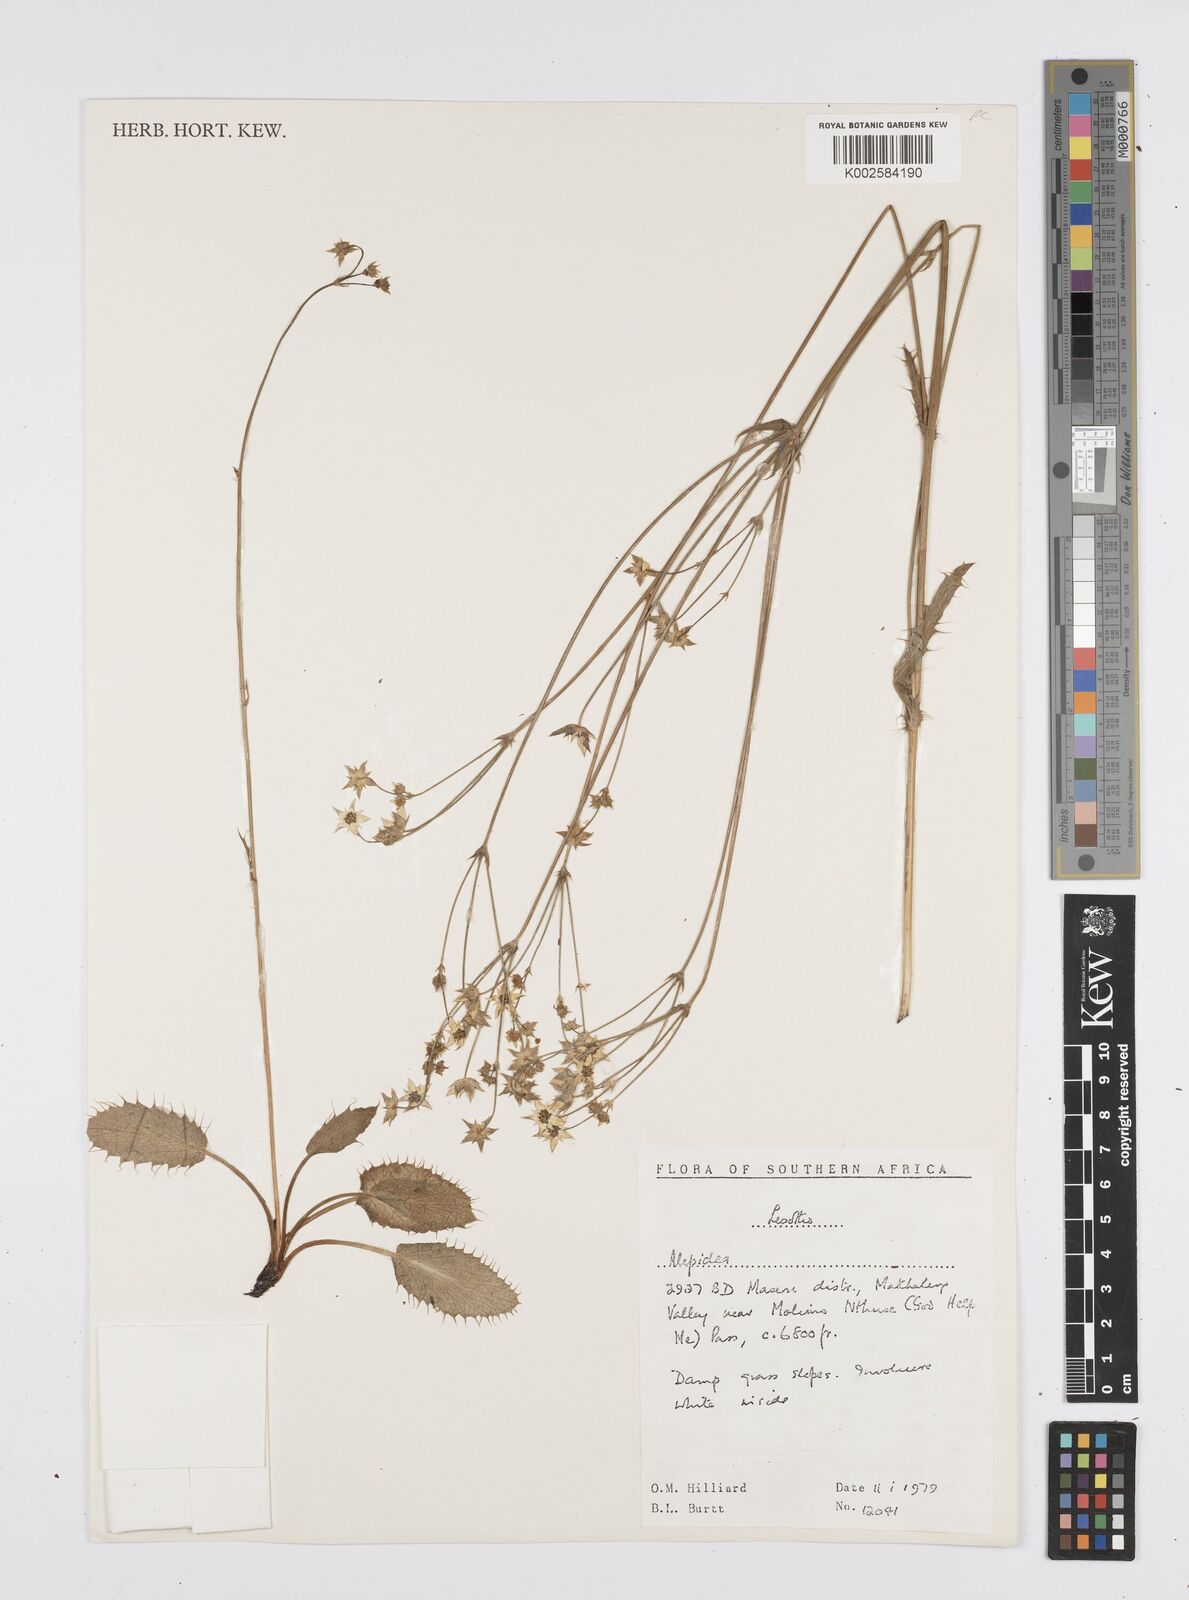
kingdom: Plantae
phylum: Tracheophyta
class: Magnoliopsida
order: Apiales
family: Apiaceae
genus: Alepidea
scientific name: Alepidea capensis
